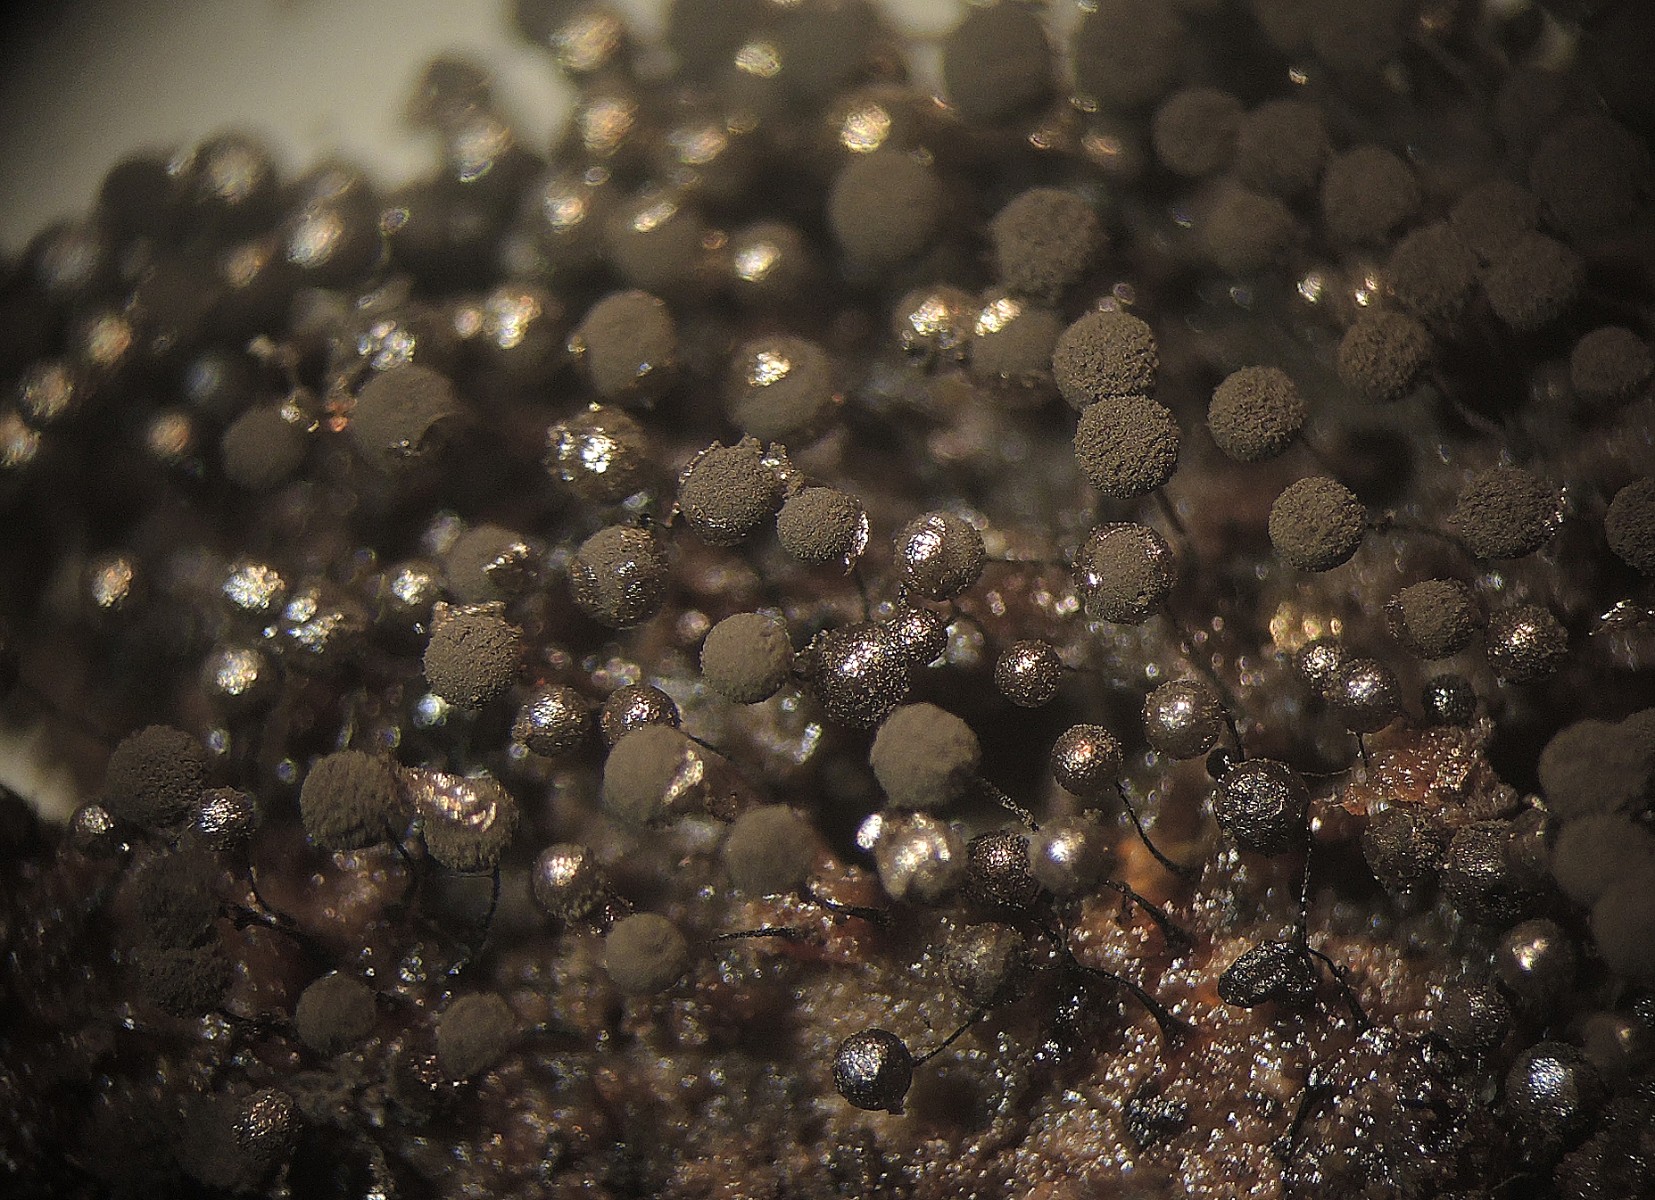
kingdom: Protozoa
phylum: Mycetozoa
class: Myxomycetes
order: Stemonitidales
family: Stemonitidaceae
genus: Collaria
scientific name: Collaria arcyrionema
